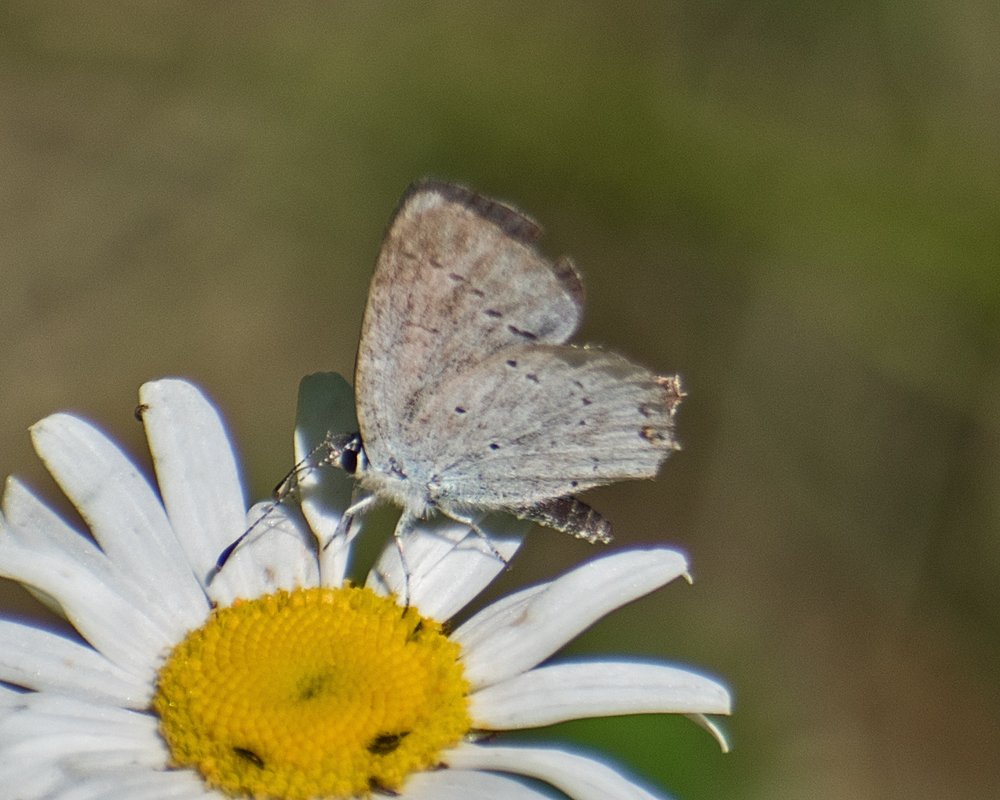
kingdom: Animalia
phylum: Arthropoda
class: Insecta
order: Lepidoptera
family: Lycaenidae
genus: Elkalyce
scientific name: Elkalyce amyntula
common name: Western Tailed-Blue
